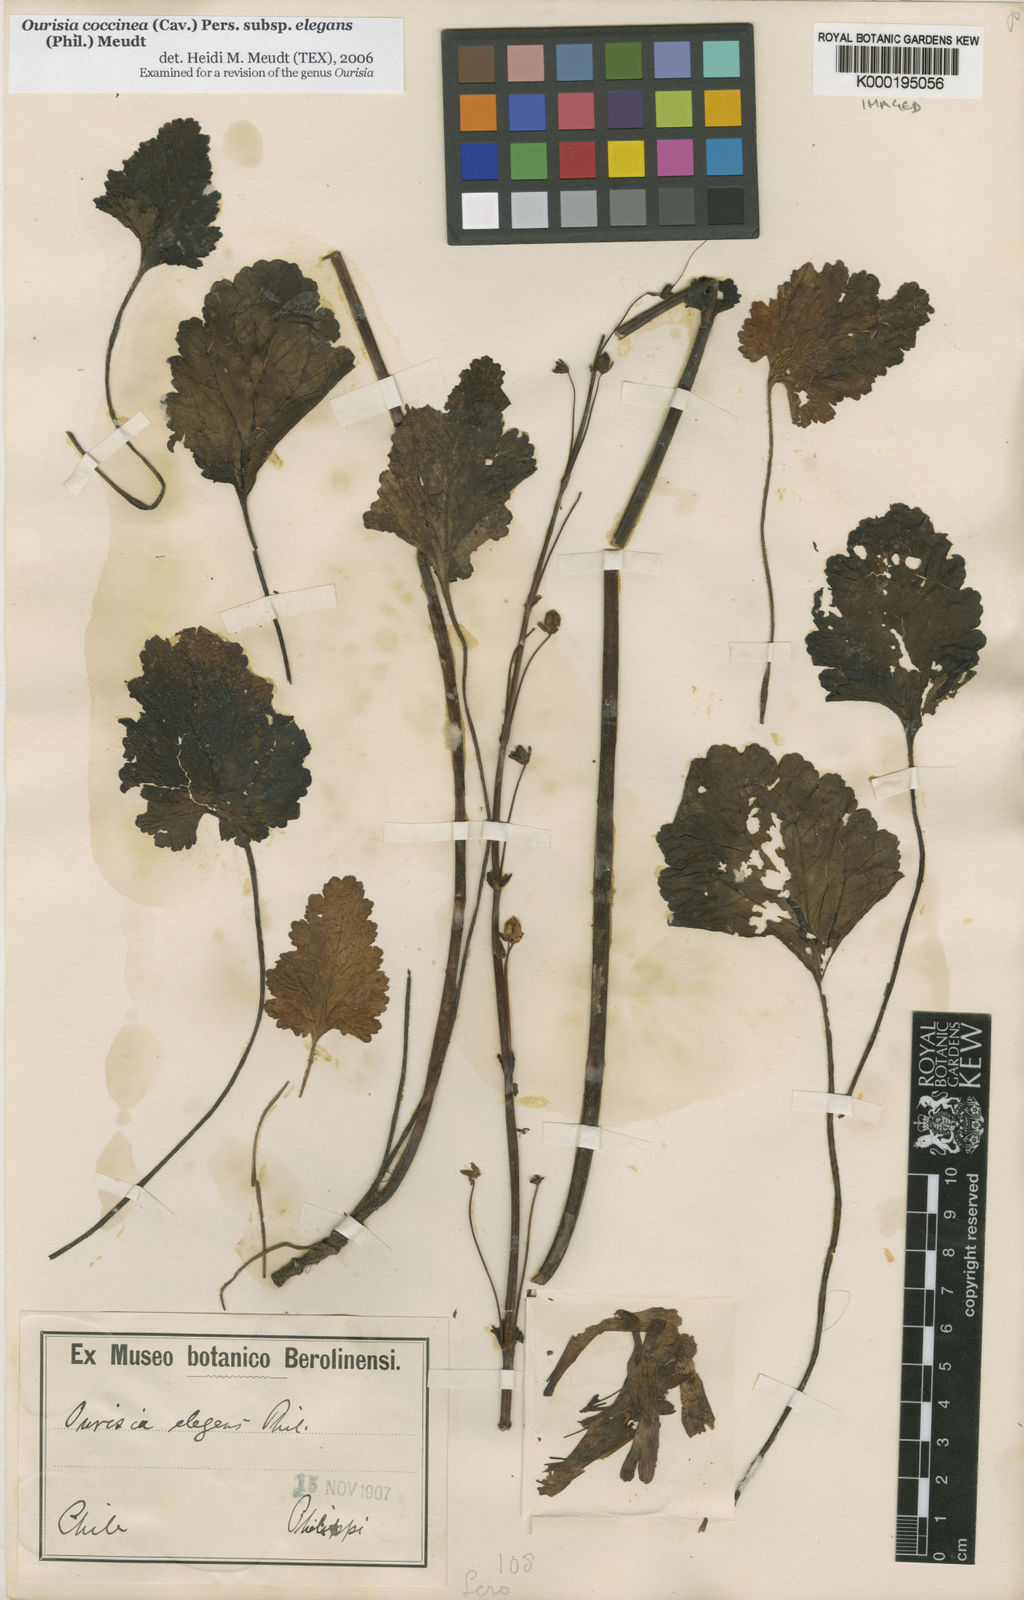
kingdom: Plantae
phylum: Tracheophyta
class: Magnoliopsida
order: Lamiales
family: Plantaginaceae
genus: Ourisia
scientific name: Ourisia coccinea
